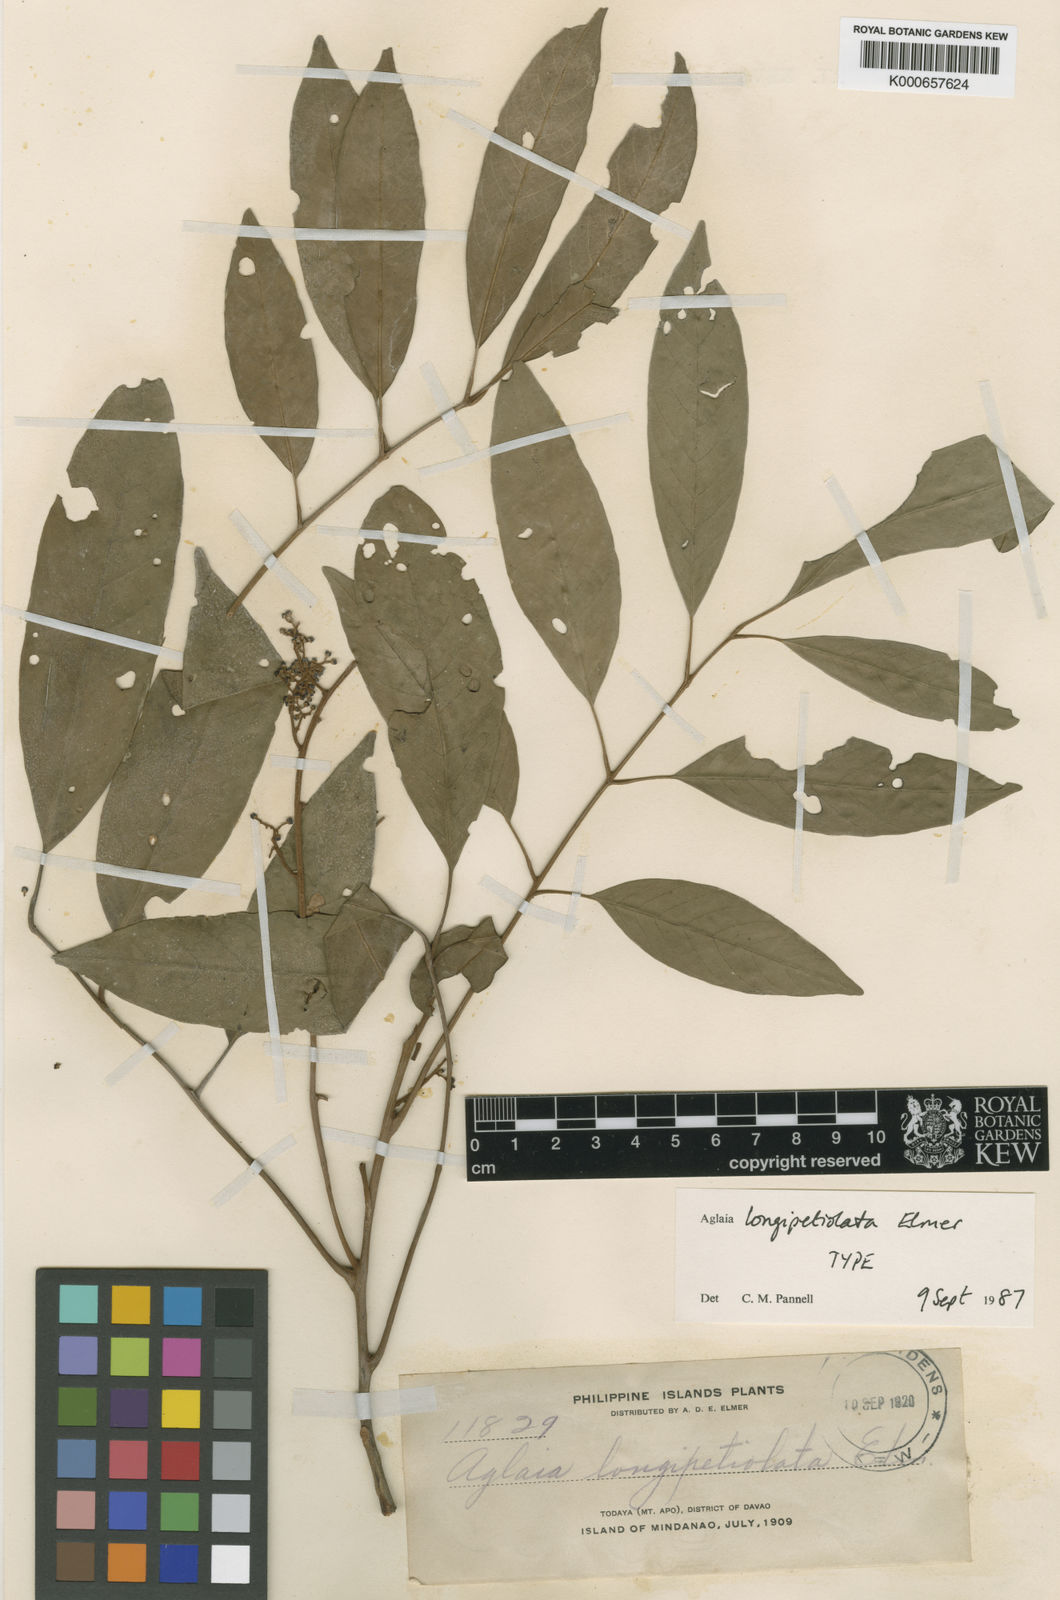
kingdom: Plantae
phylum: Tracheophyta
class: Magnoliopsida
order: Sapindales
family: Meliaceae
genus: Aglaia
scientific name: Aglaia elliptica
